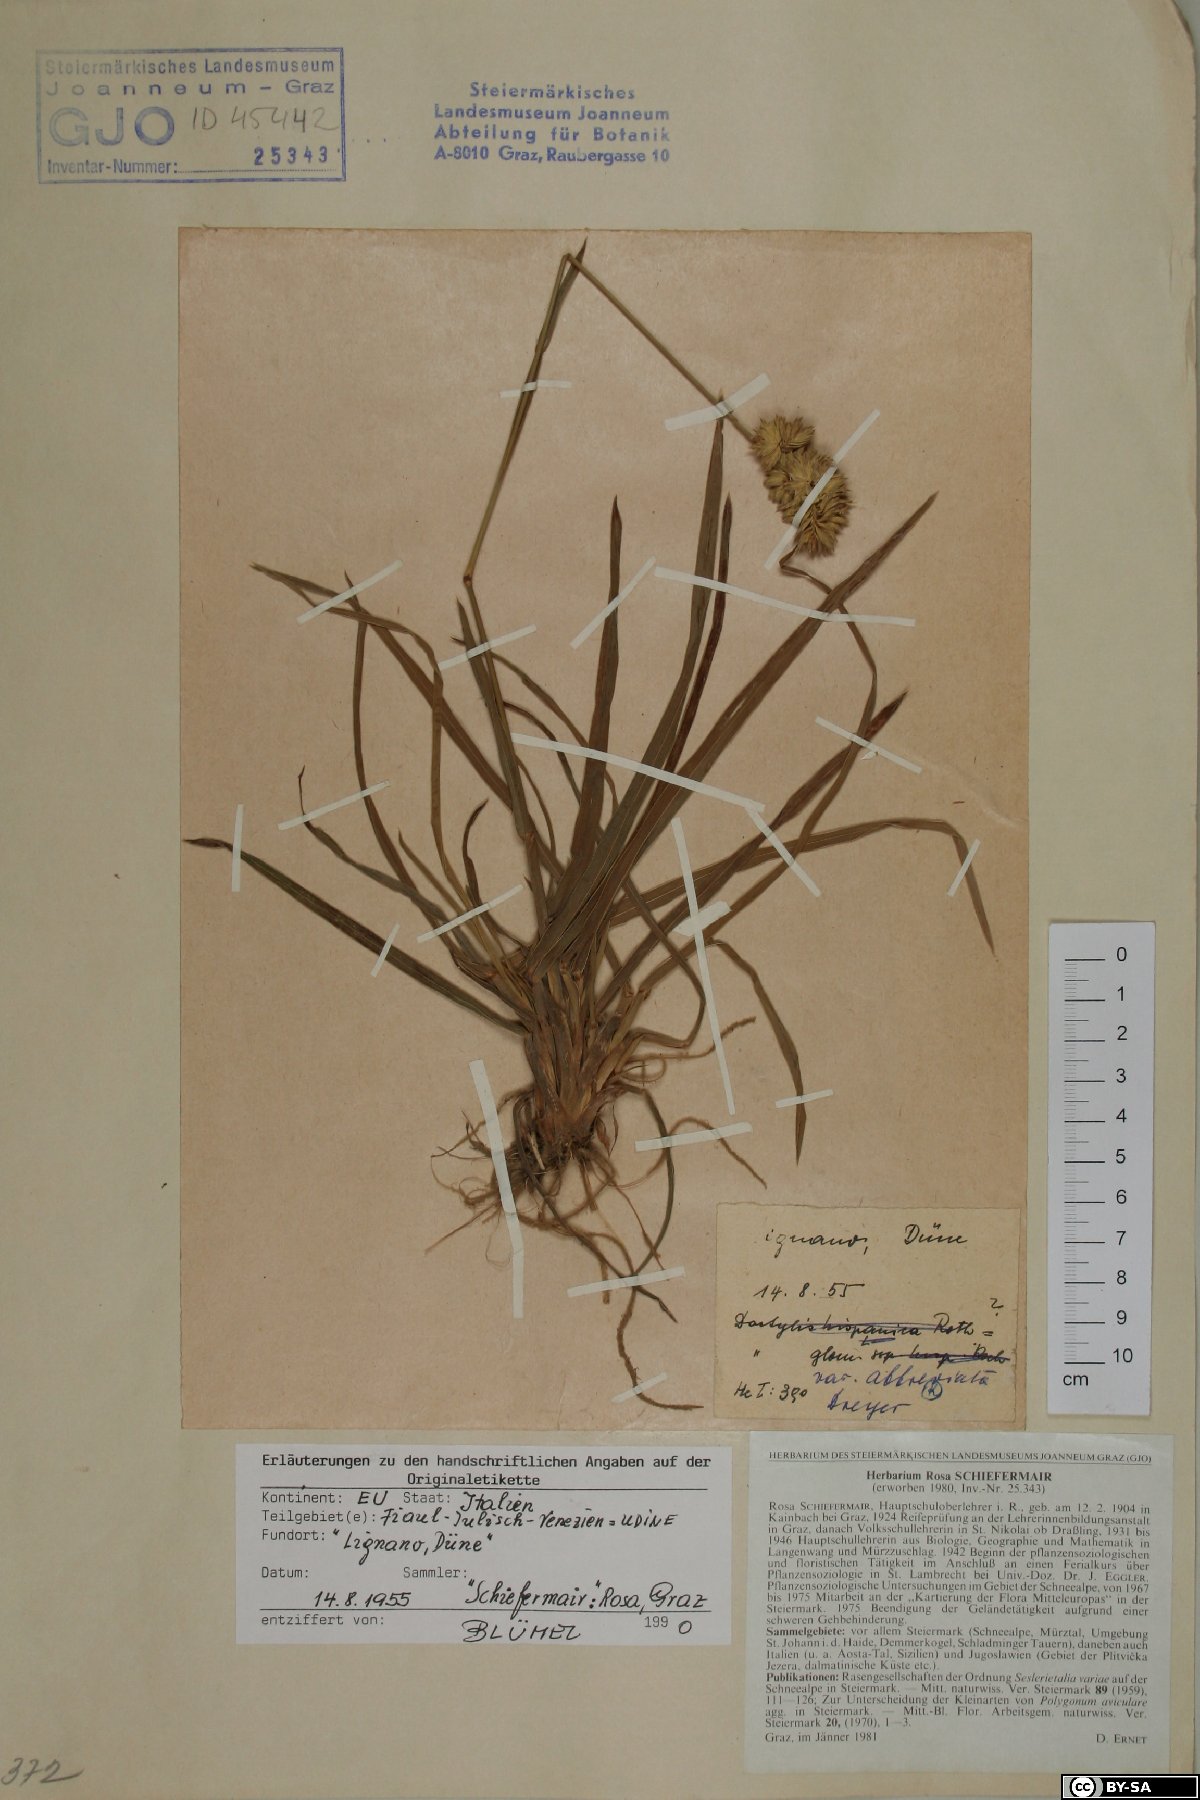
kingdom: Plantae
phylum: Tracheophyta
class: Liliopsida
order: Poales
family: Poaceae
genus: Dactylis
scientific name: Dactylis glomerata
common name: Orchardgrass
